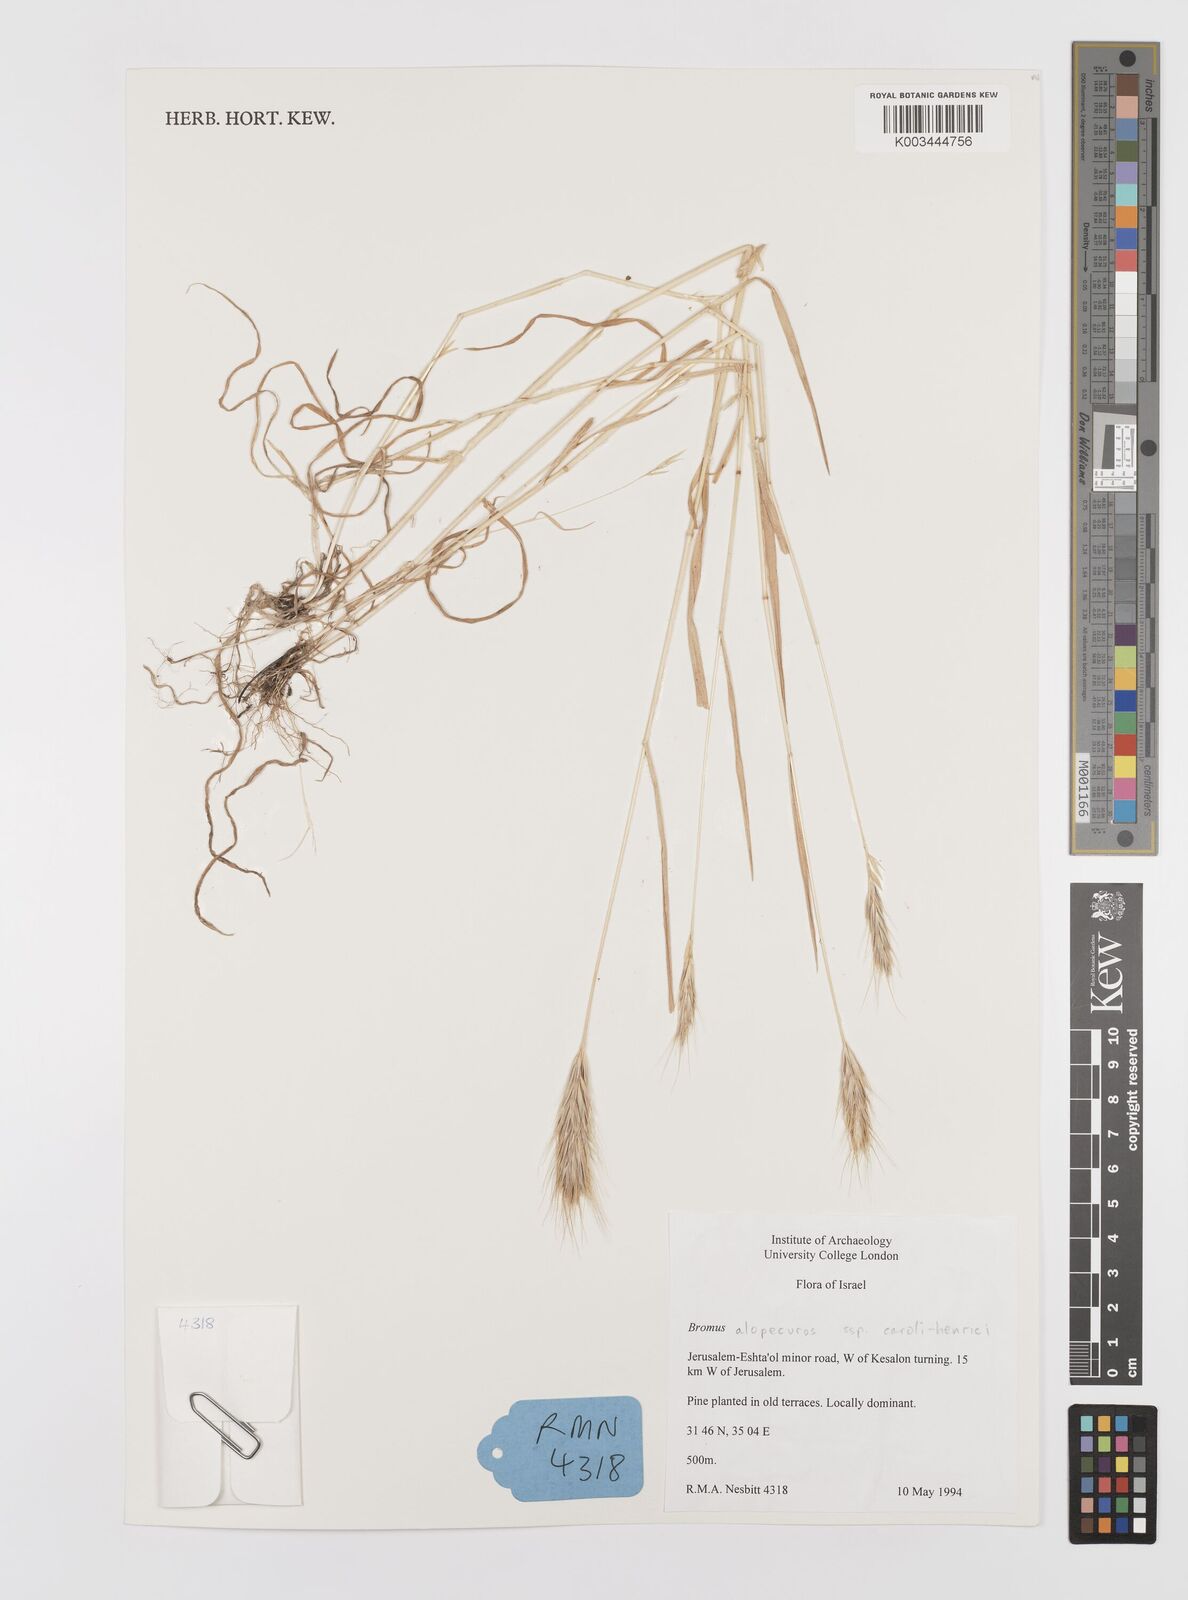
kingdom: Plantae
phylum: Tracheophyta
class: Liliopsida
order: Poales
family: Poaceae
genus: Bromus
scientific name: Bromus alopecuros
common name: Weedy brome
